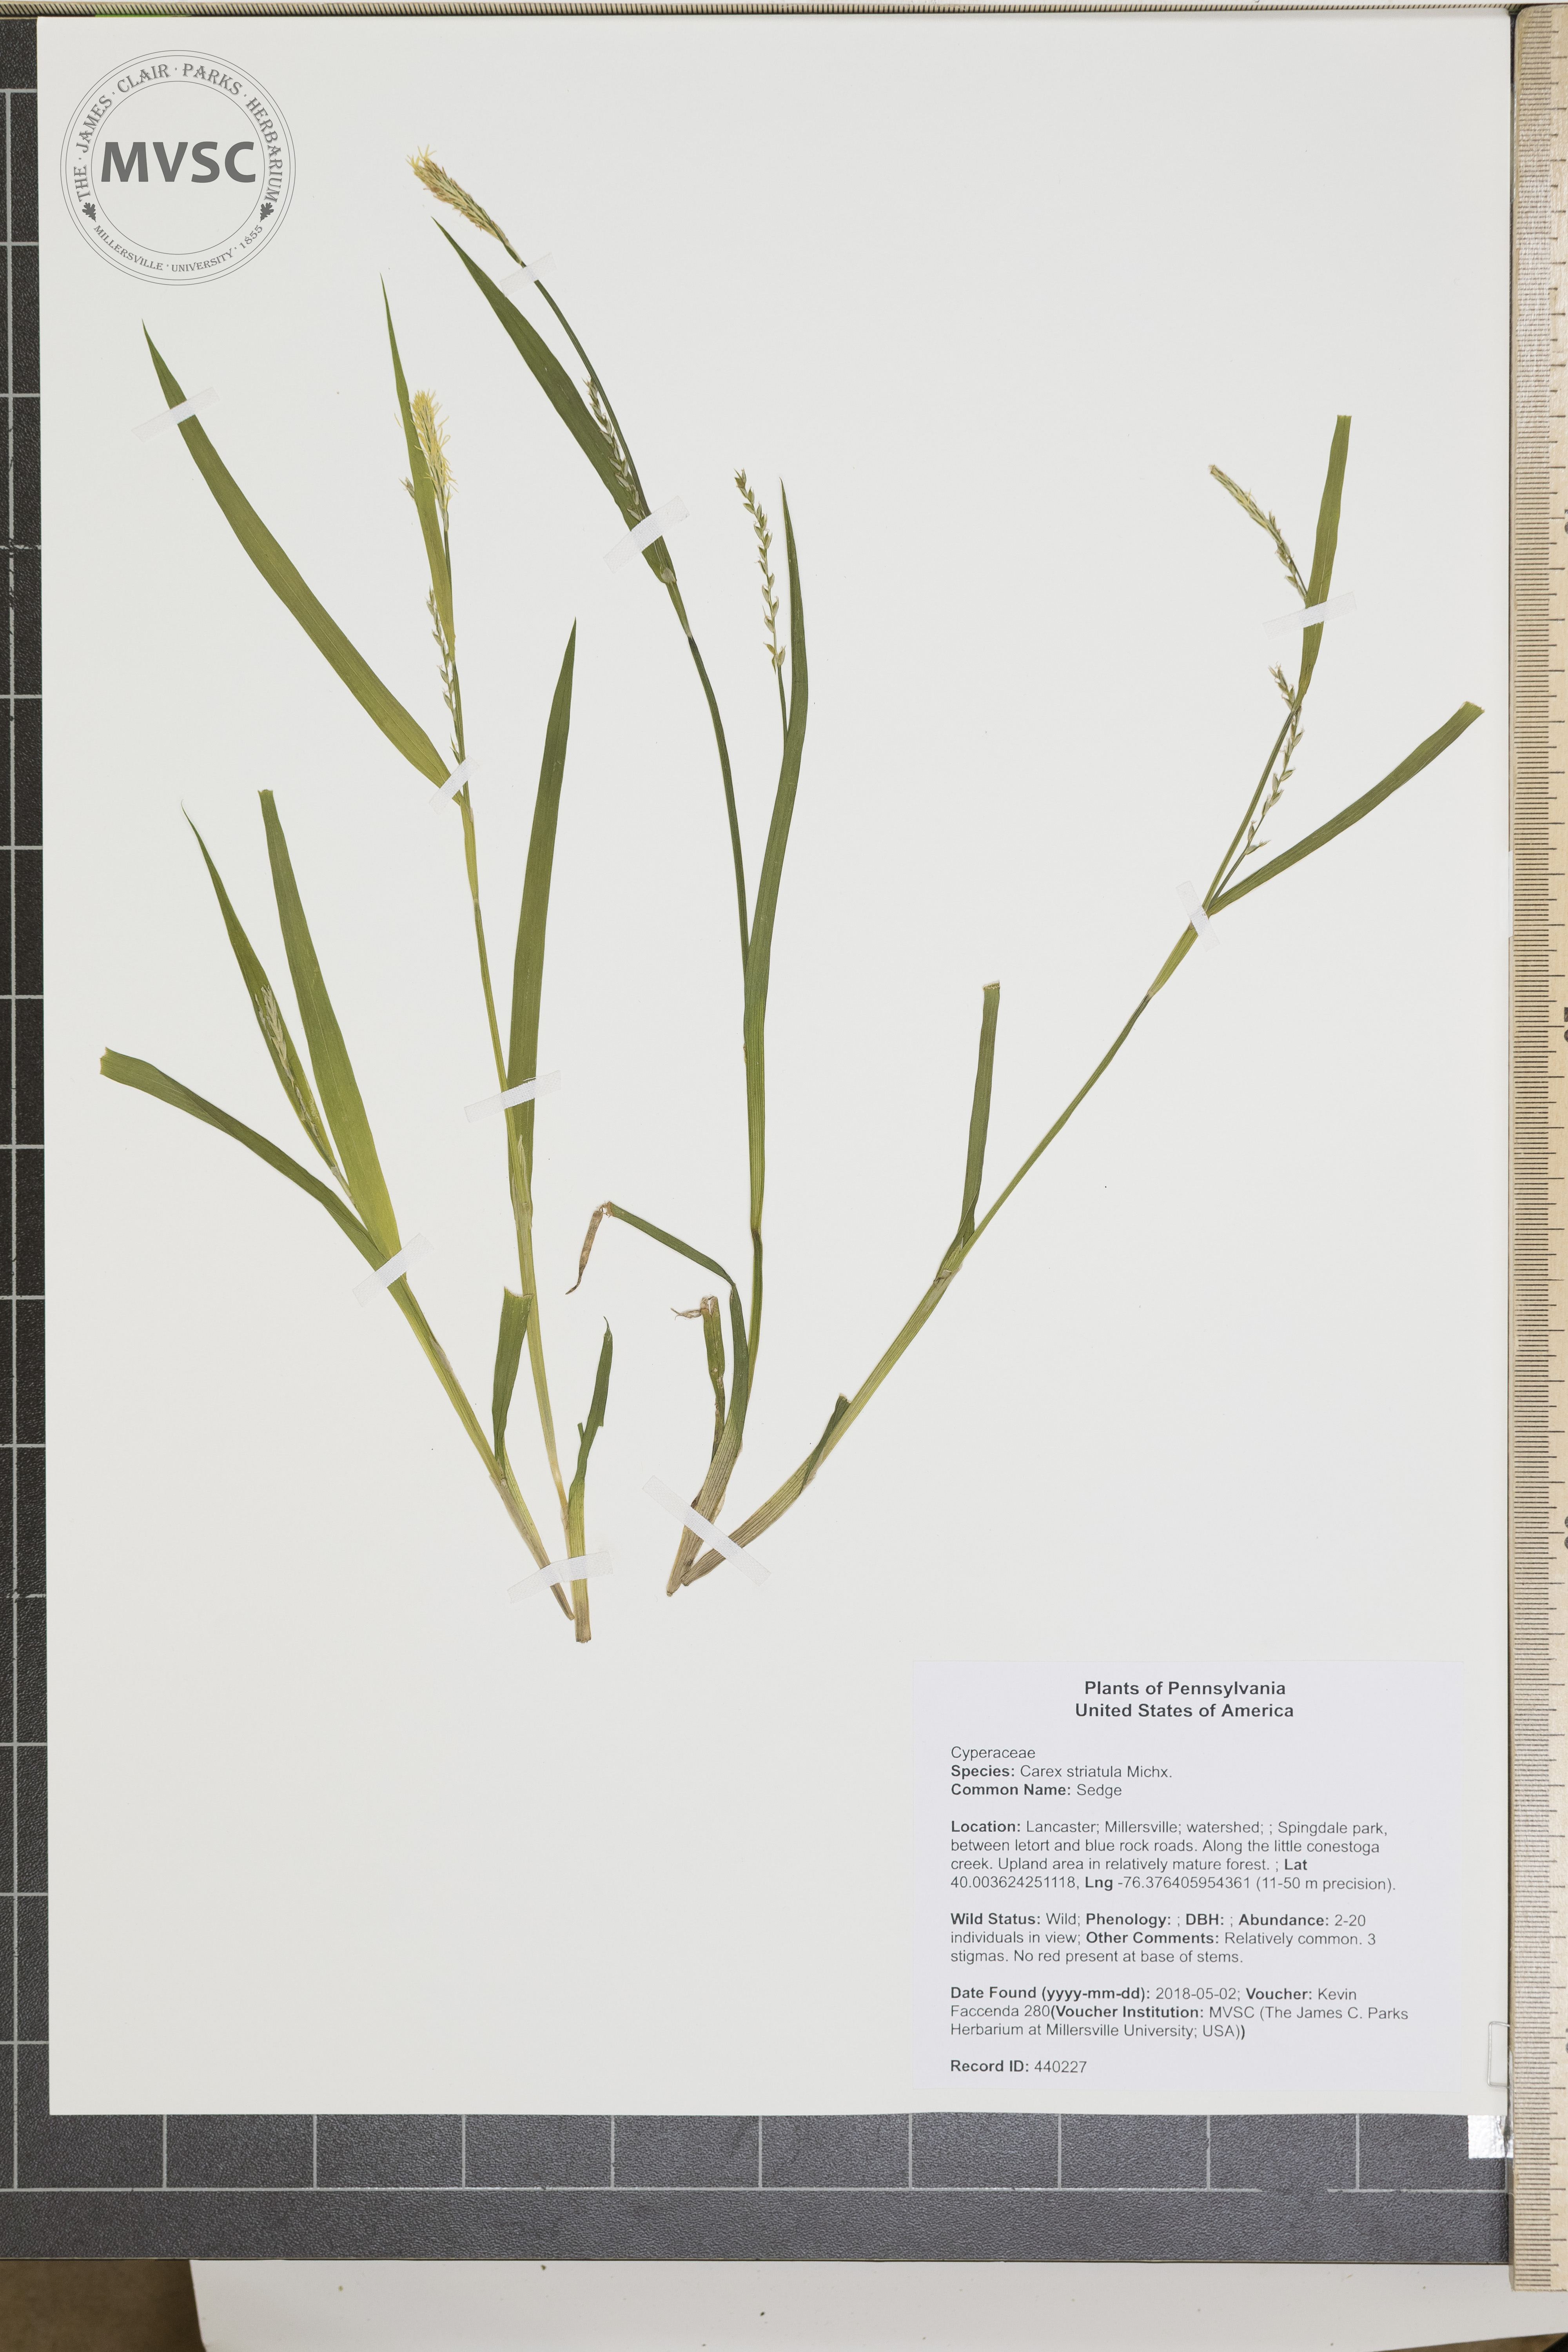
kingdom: Plantae
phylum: Tracheophyta
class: Liliopsida
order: Poales
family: Cyperaceae
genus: Carex
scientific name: Carex striatula
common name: Sedge
